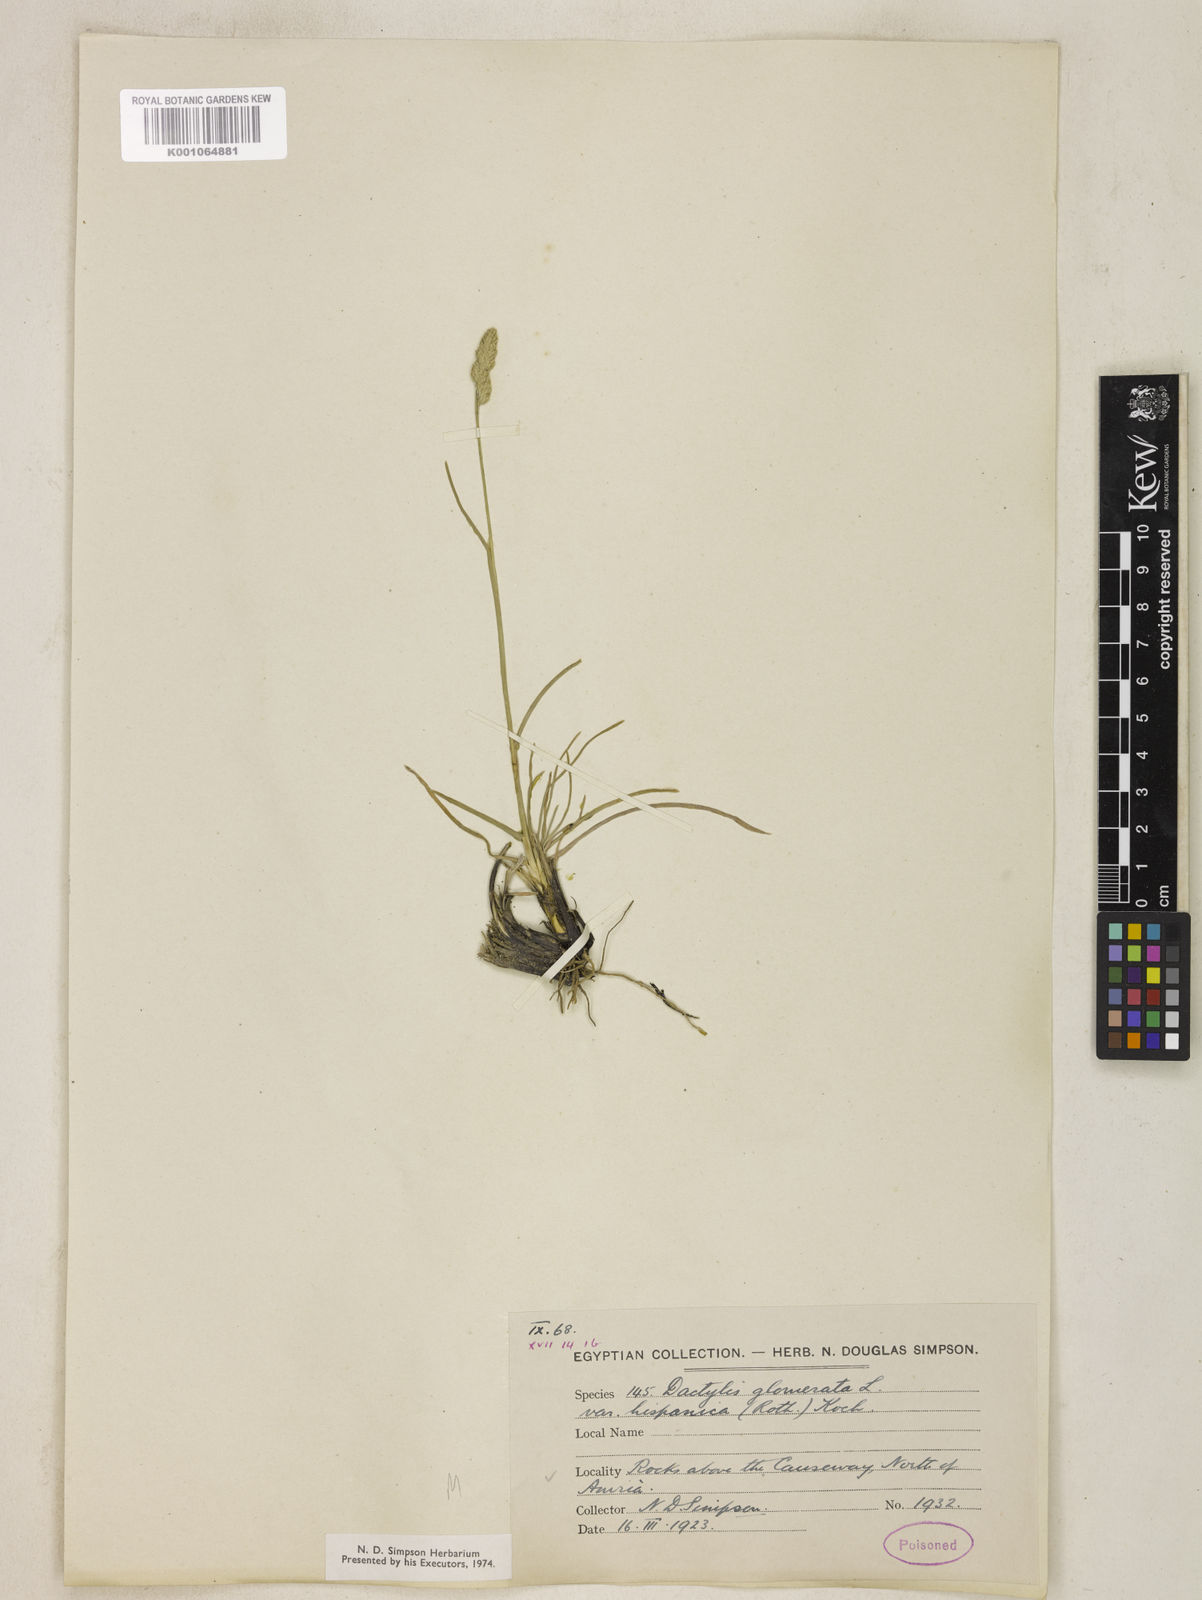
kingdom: Plantae
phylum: Tracheophyta
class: Liliopsida
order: Poales
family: Poaceae
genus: Dactylis
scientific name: Dactylis glomerata
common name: Orchardgrass
